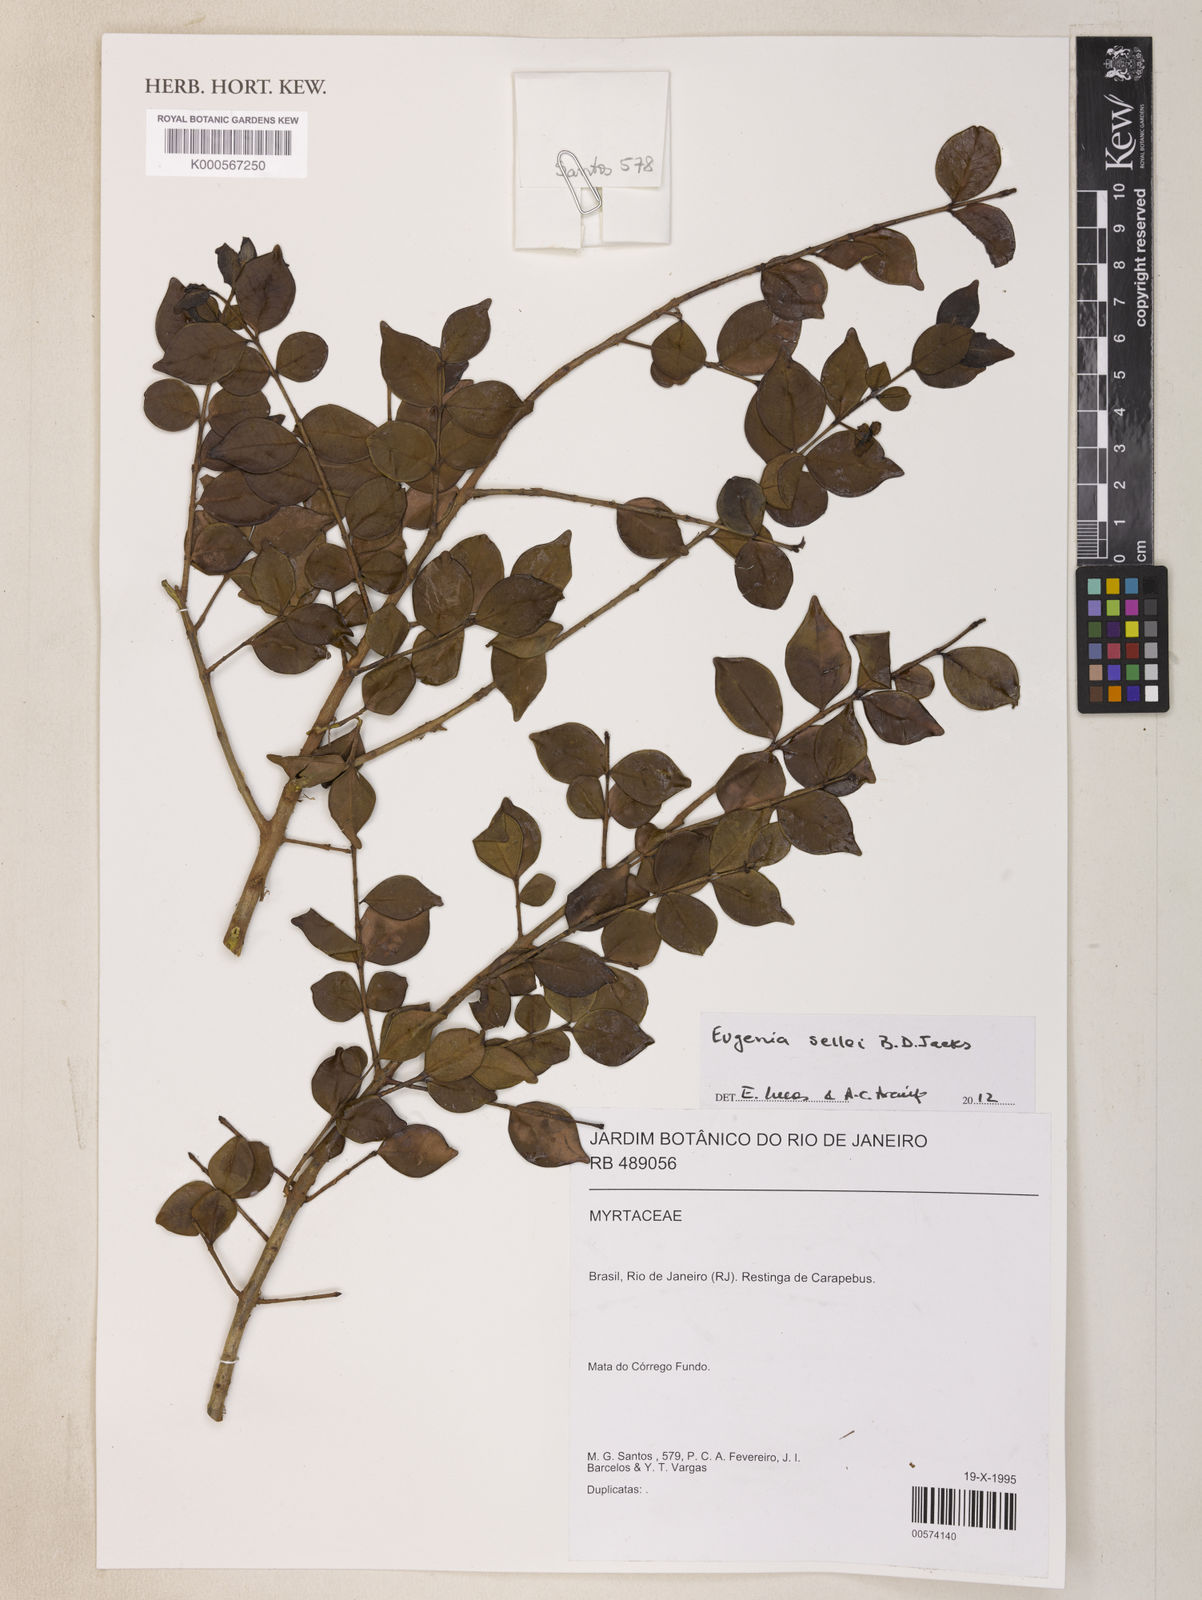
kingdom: Plantae
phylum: Tracheophyta
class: Magnoliopsida
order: Myrtales
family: Myrtaceae
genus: Eugenia
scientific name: Eugenia selloi
